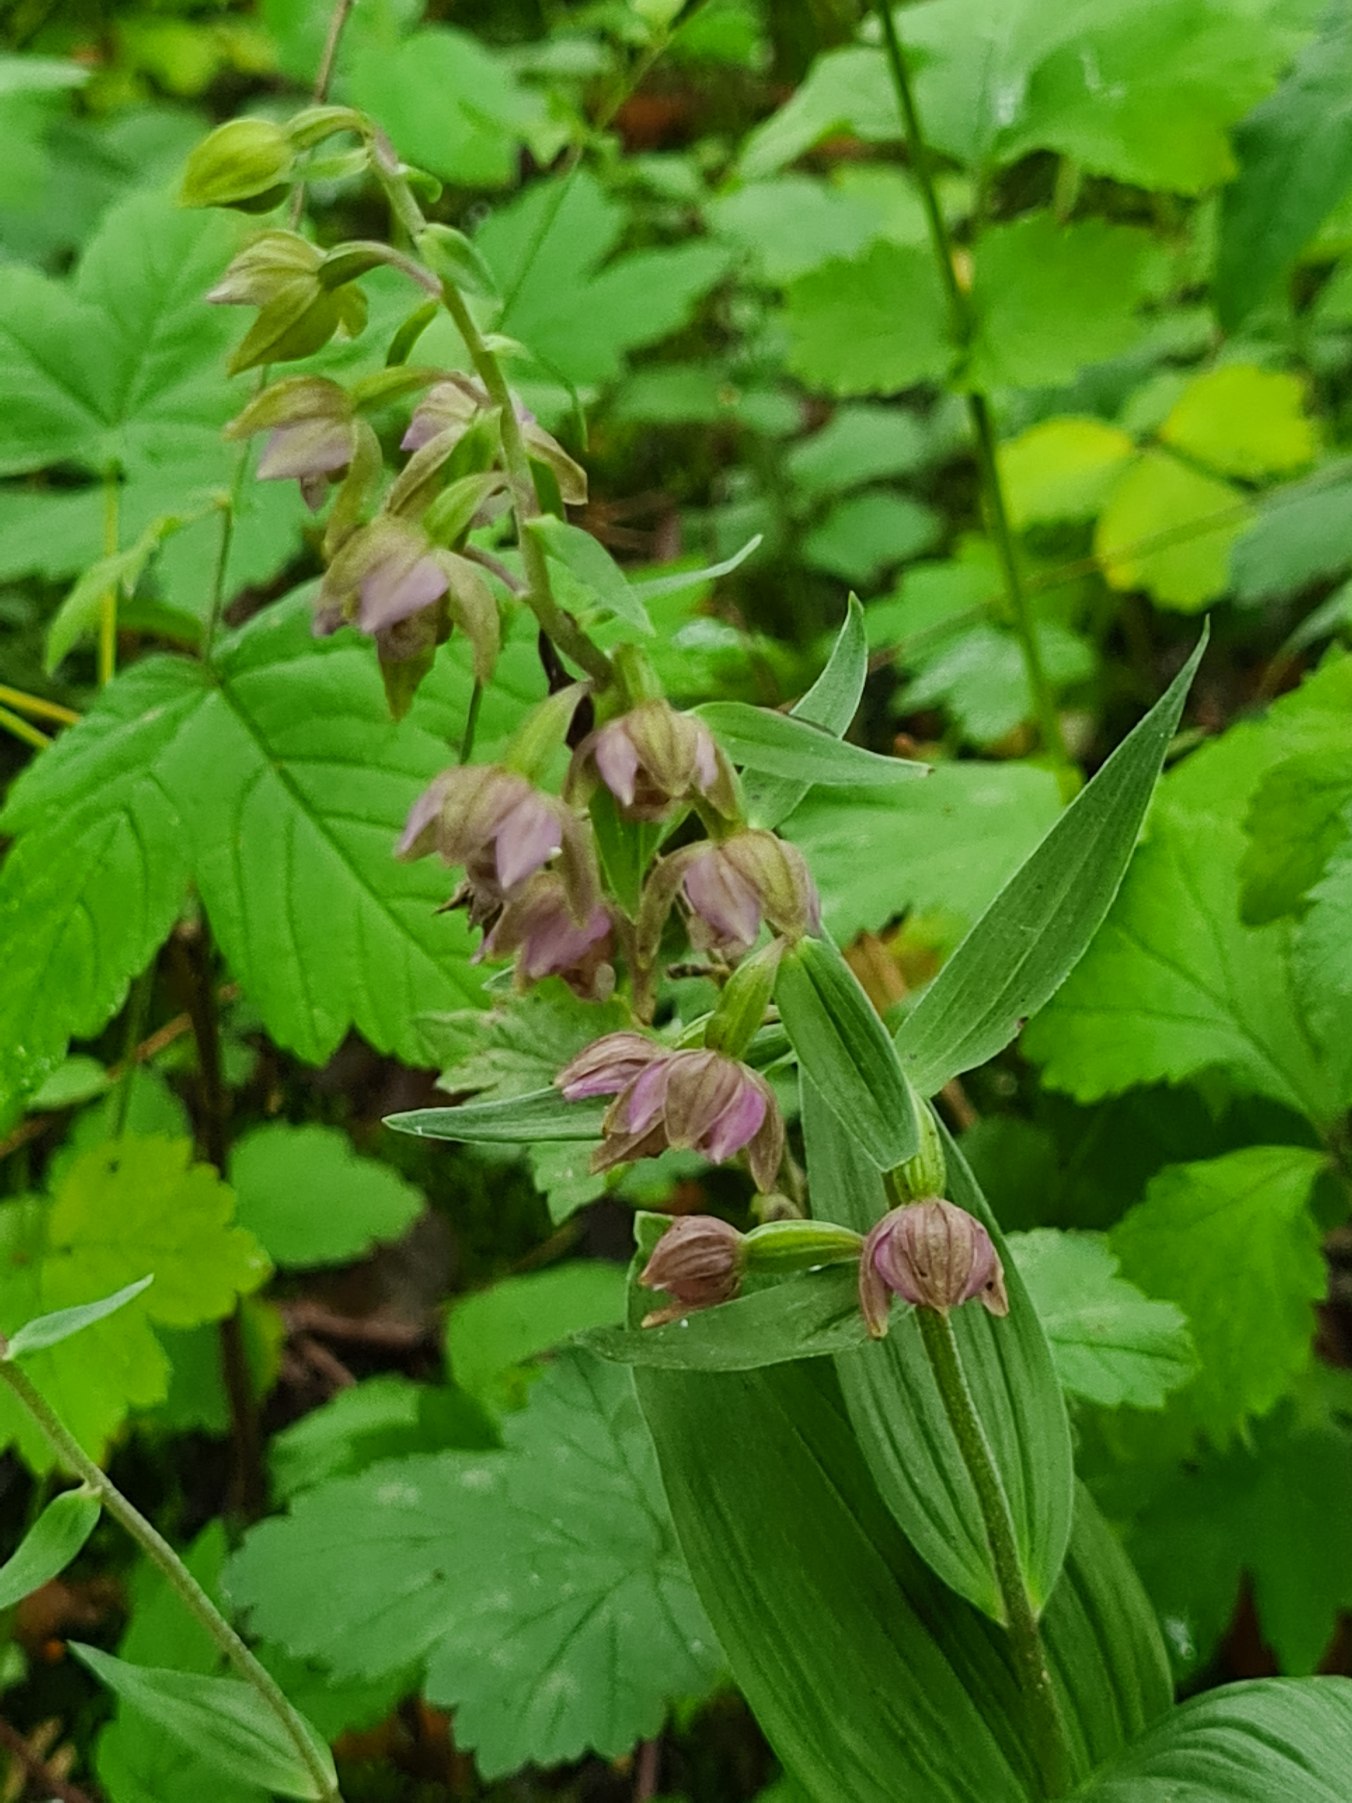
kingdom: Plantae
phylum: Tracheophyta
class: Liliopsida
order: Asparagales
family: Orchidaceae
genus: Epipactis
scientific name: Epipactis helleborine
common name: Skov-hullæbe
